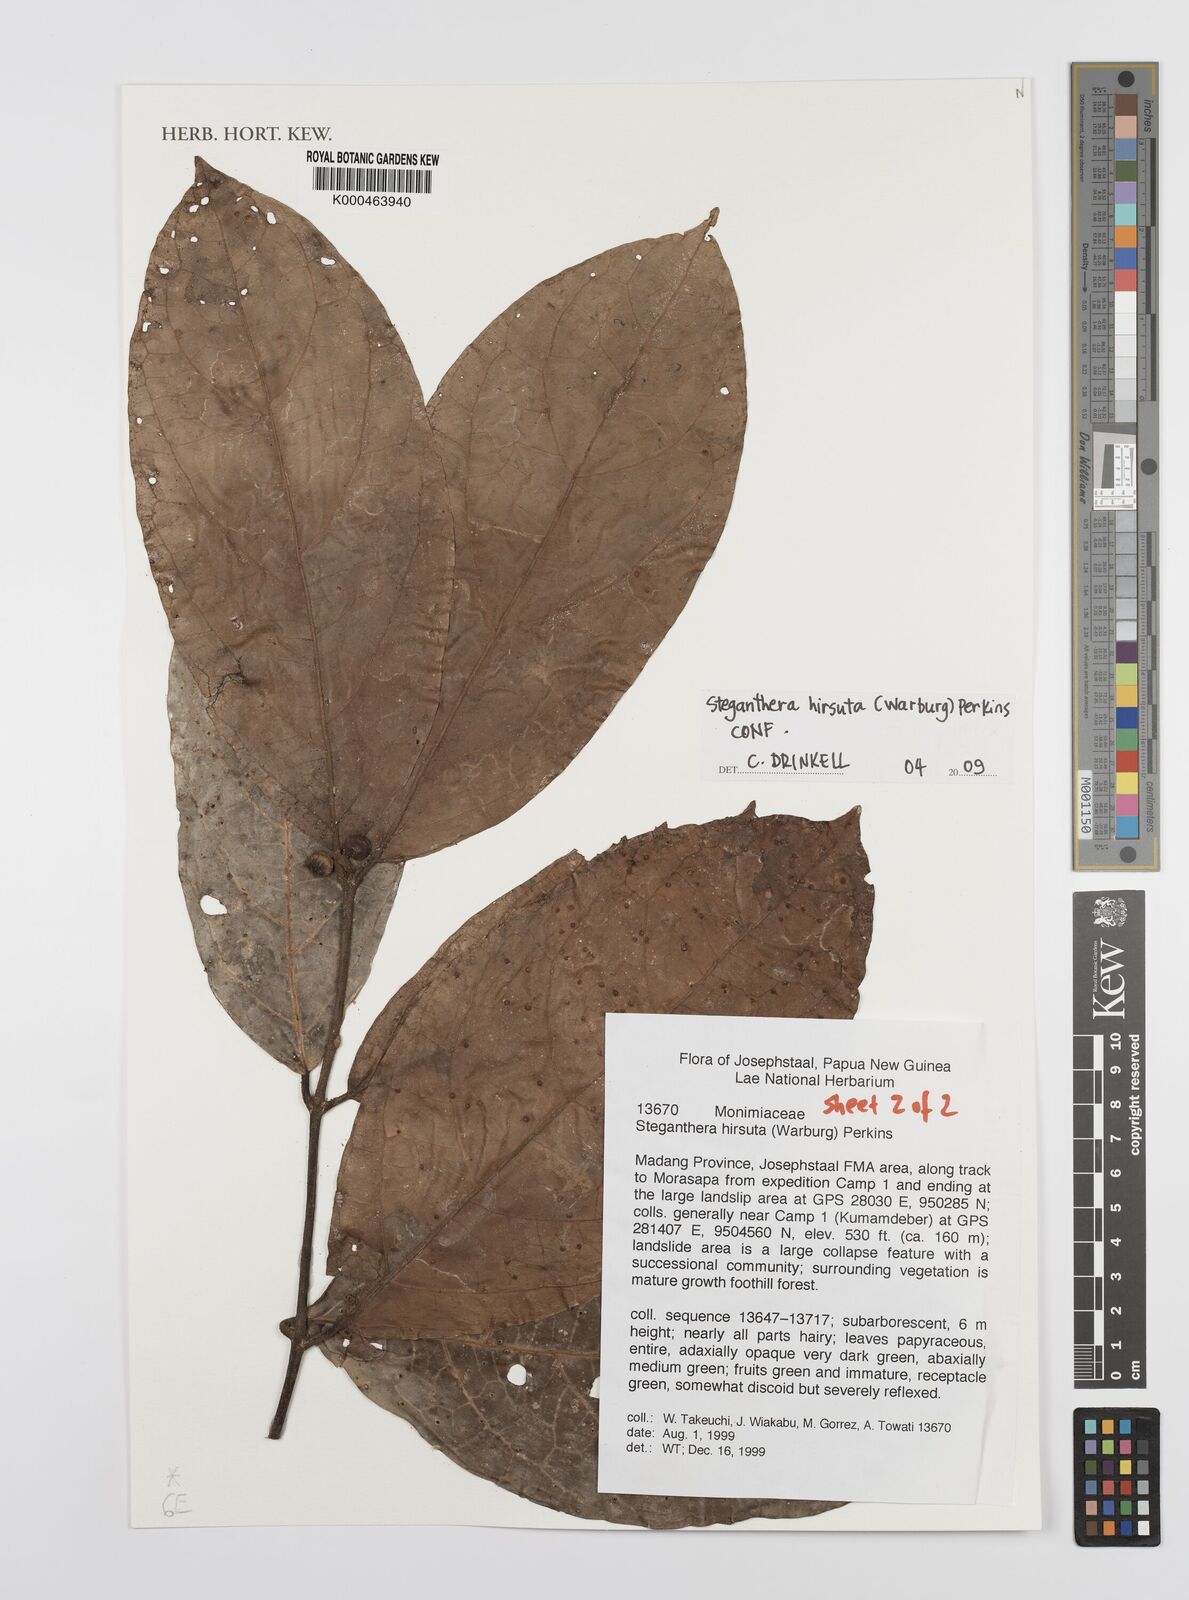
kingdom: Plantae
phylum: Tracheophyta
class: Magnoliopsida
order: Laurales
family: Monimiaceae
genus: Steganthera
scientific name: Steganthera hirsuta
